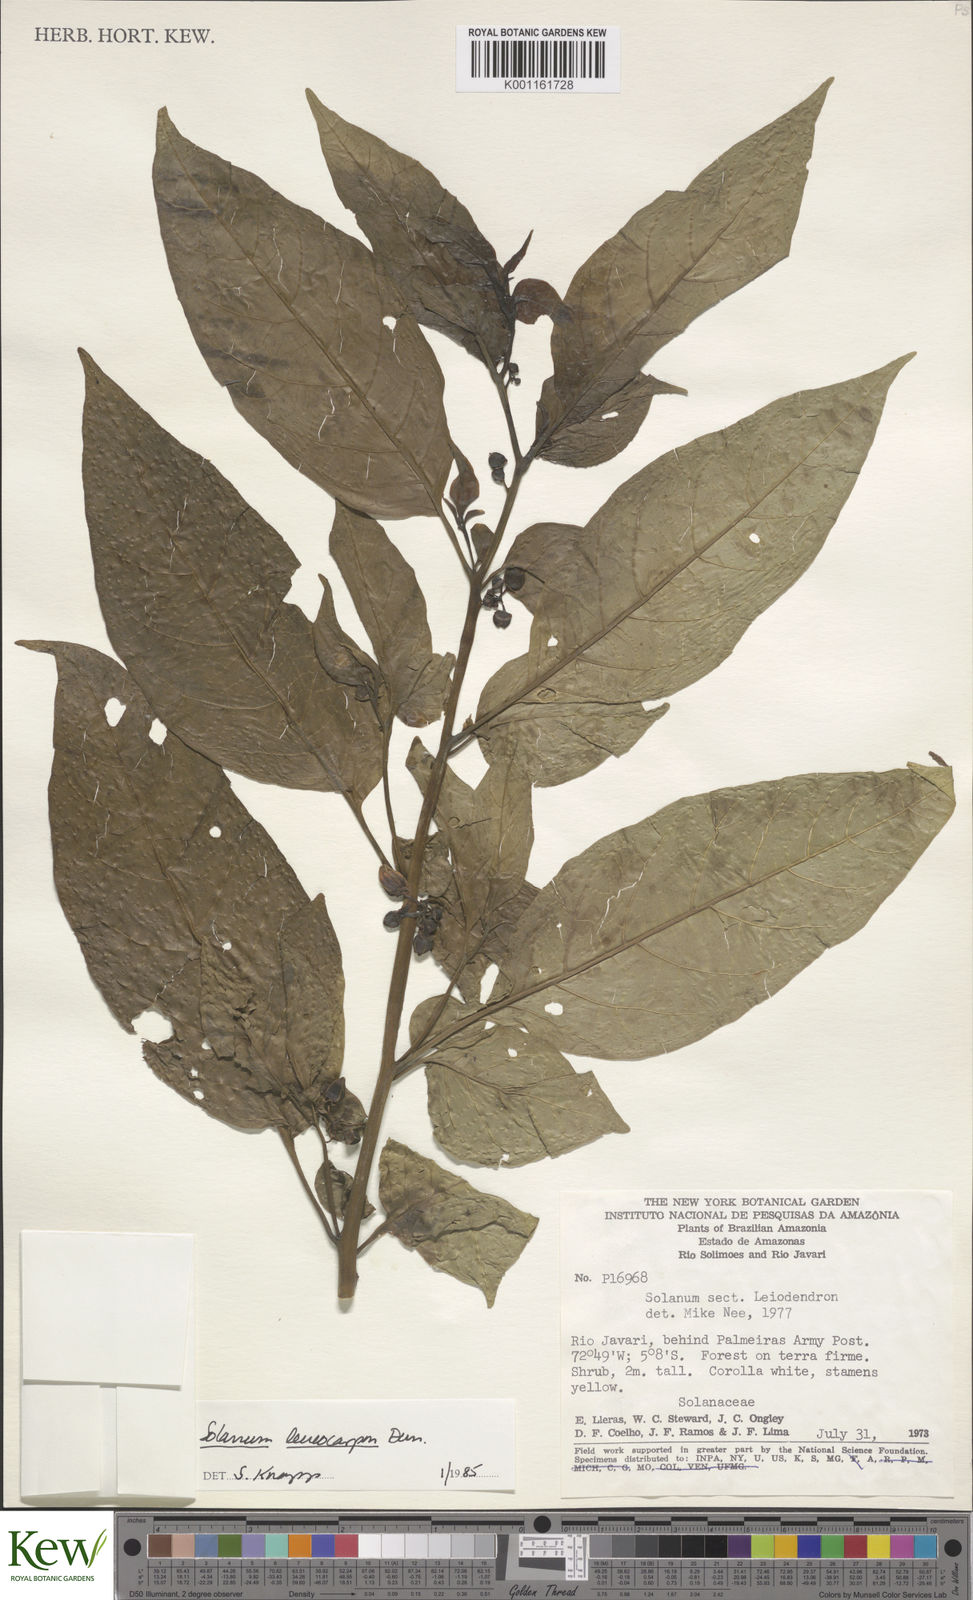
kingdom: Plantae
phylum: Tracheophyta
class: Magnoliopsida
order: Solanales
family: Solanaceae
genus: Solanum
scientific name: Solanum leucocarpon
